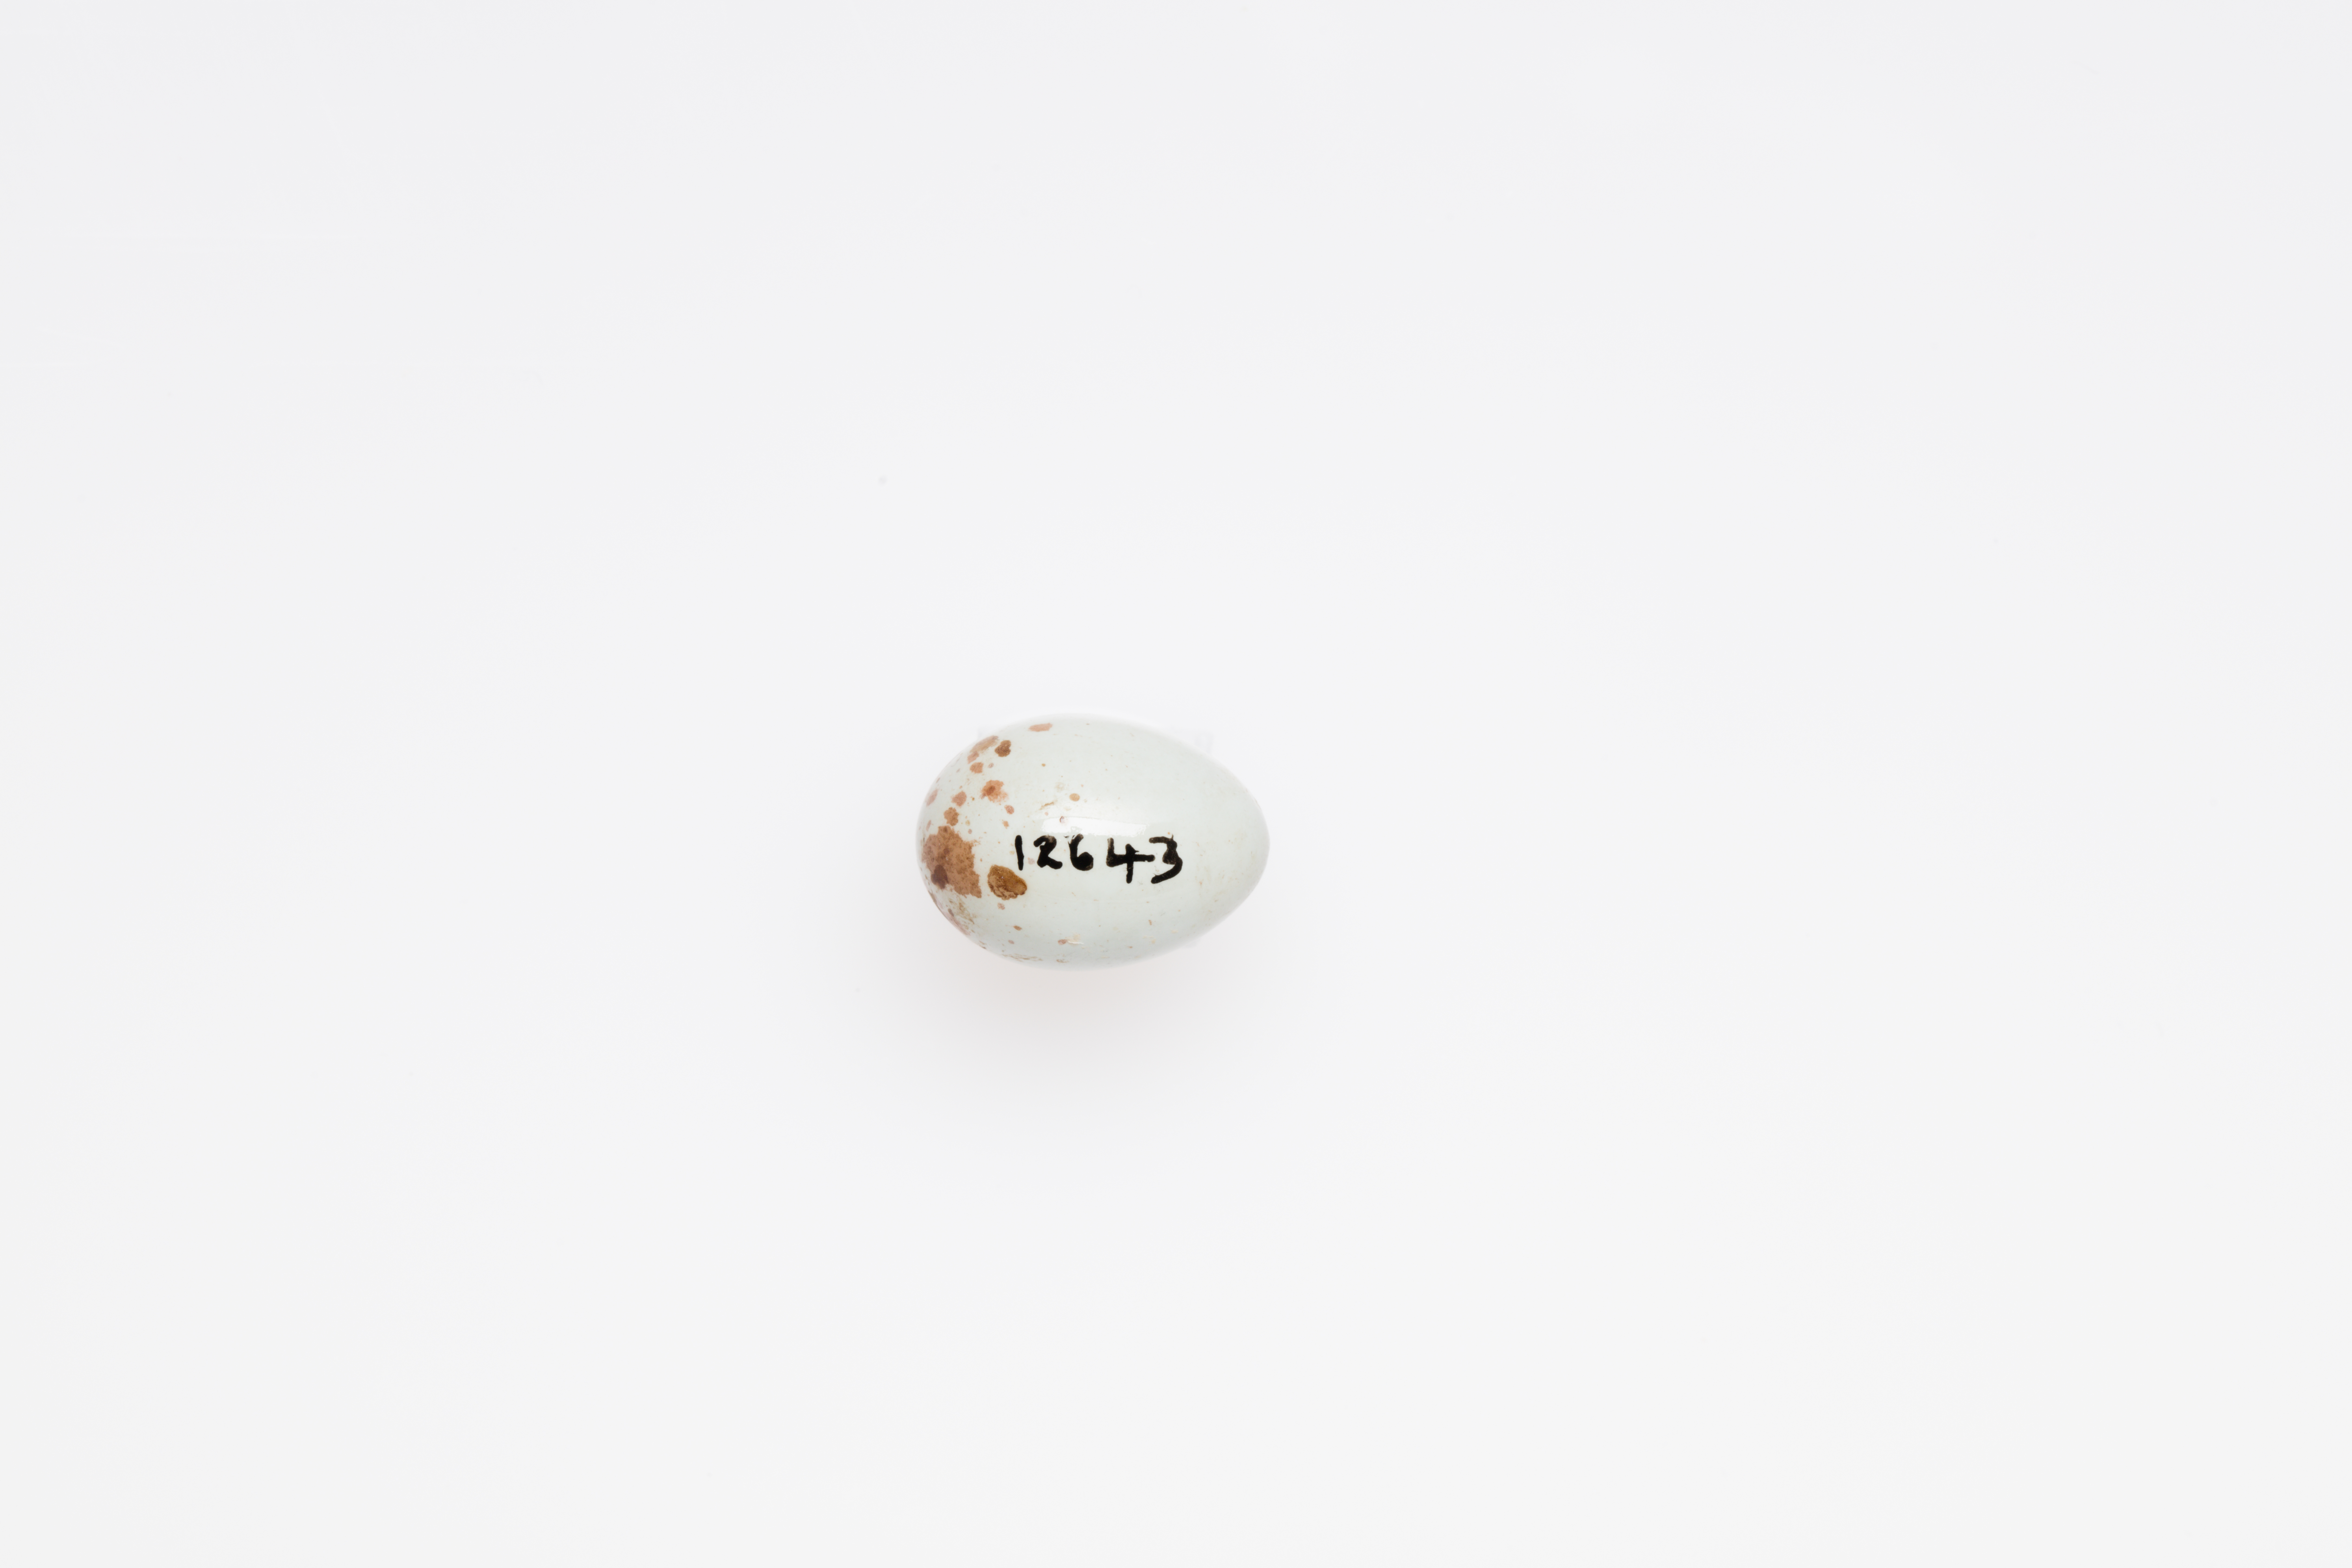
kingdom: Animalia
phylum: Chordata
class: Aves
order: Passeriformes
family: Cisticolidae
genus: Cisticola
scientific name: Cisticola exilis
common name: Golden-headed cisticola
